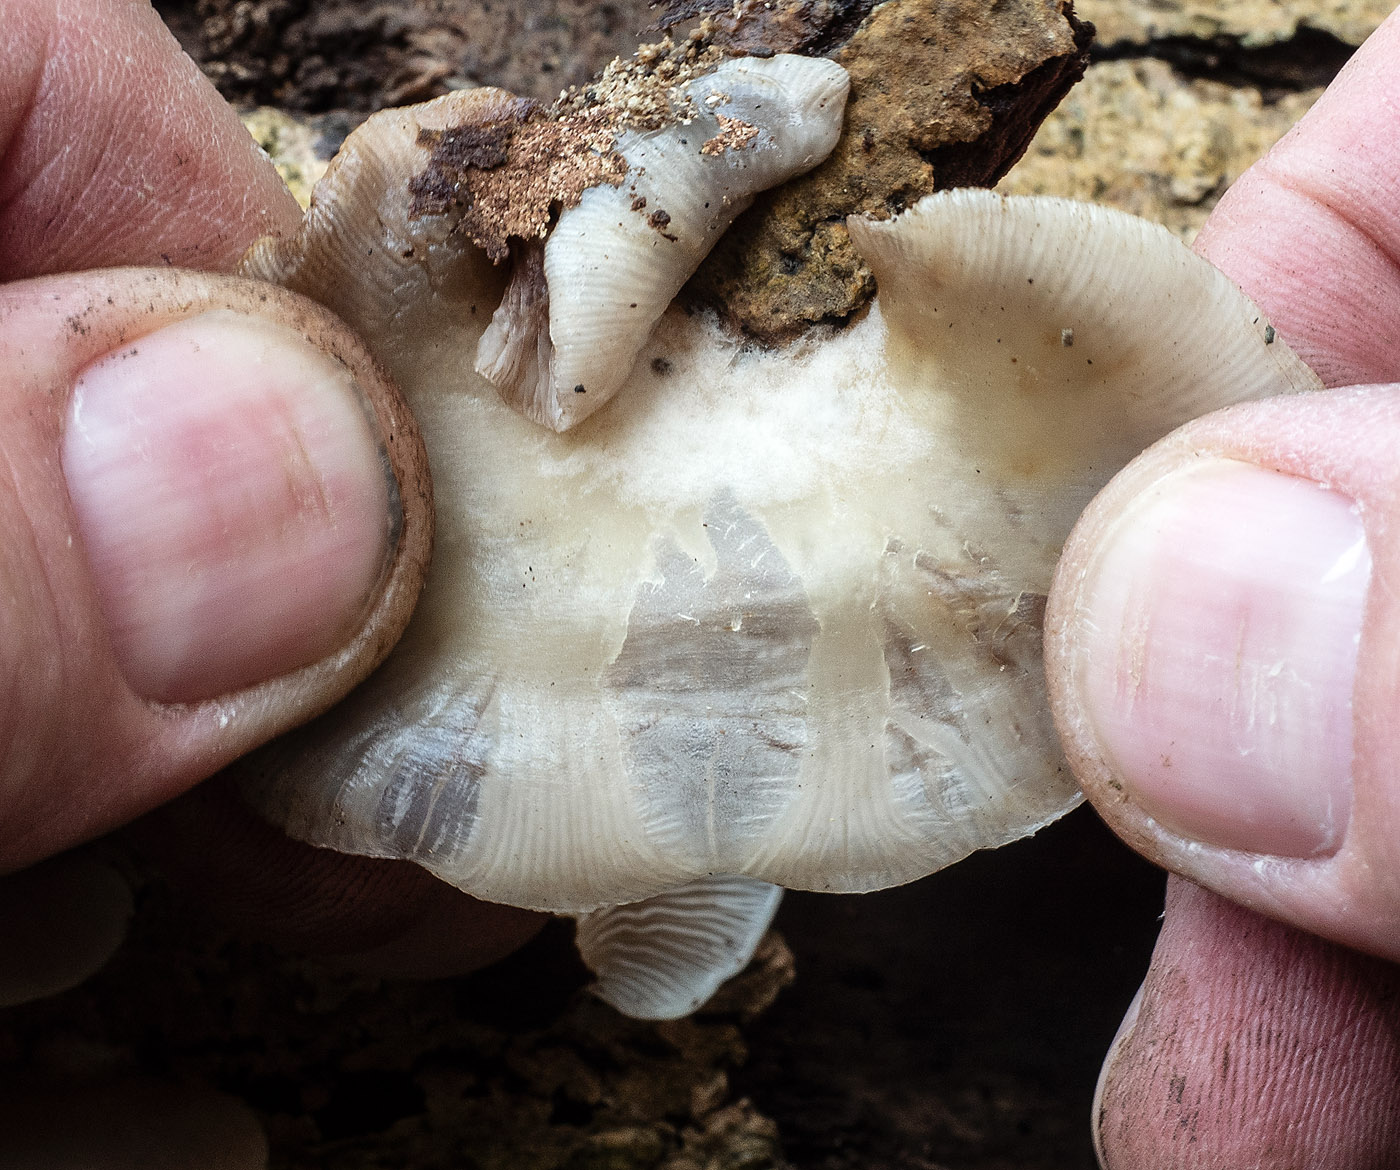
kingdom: Fungi
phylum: Basidiomycota
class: Agaricomycetes
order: Agaricales
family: Crepidotaceae
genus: Crepidotus
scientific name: Crepidotus mollis
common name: blød muslingesvamp
